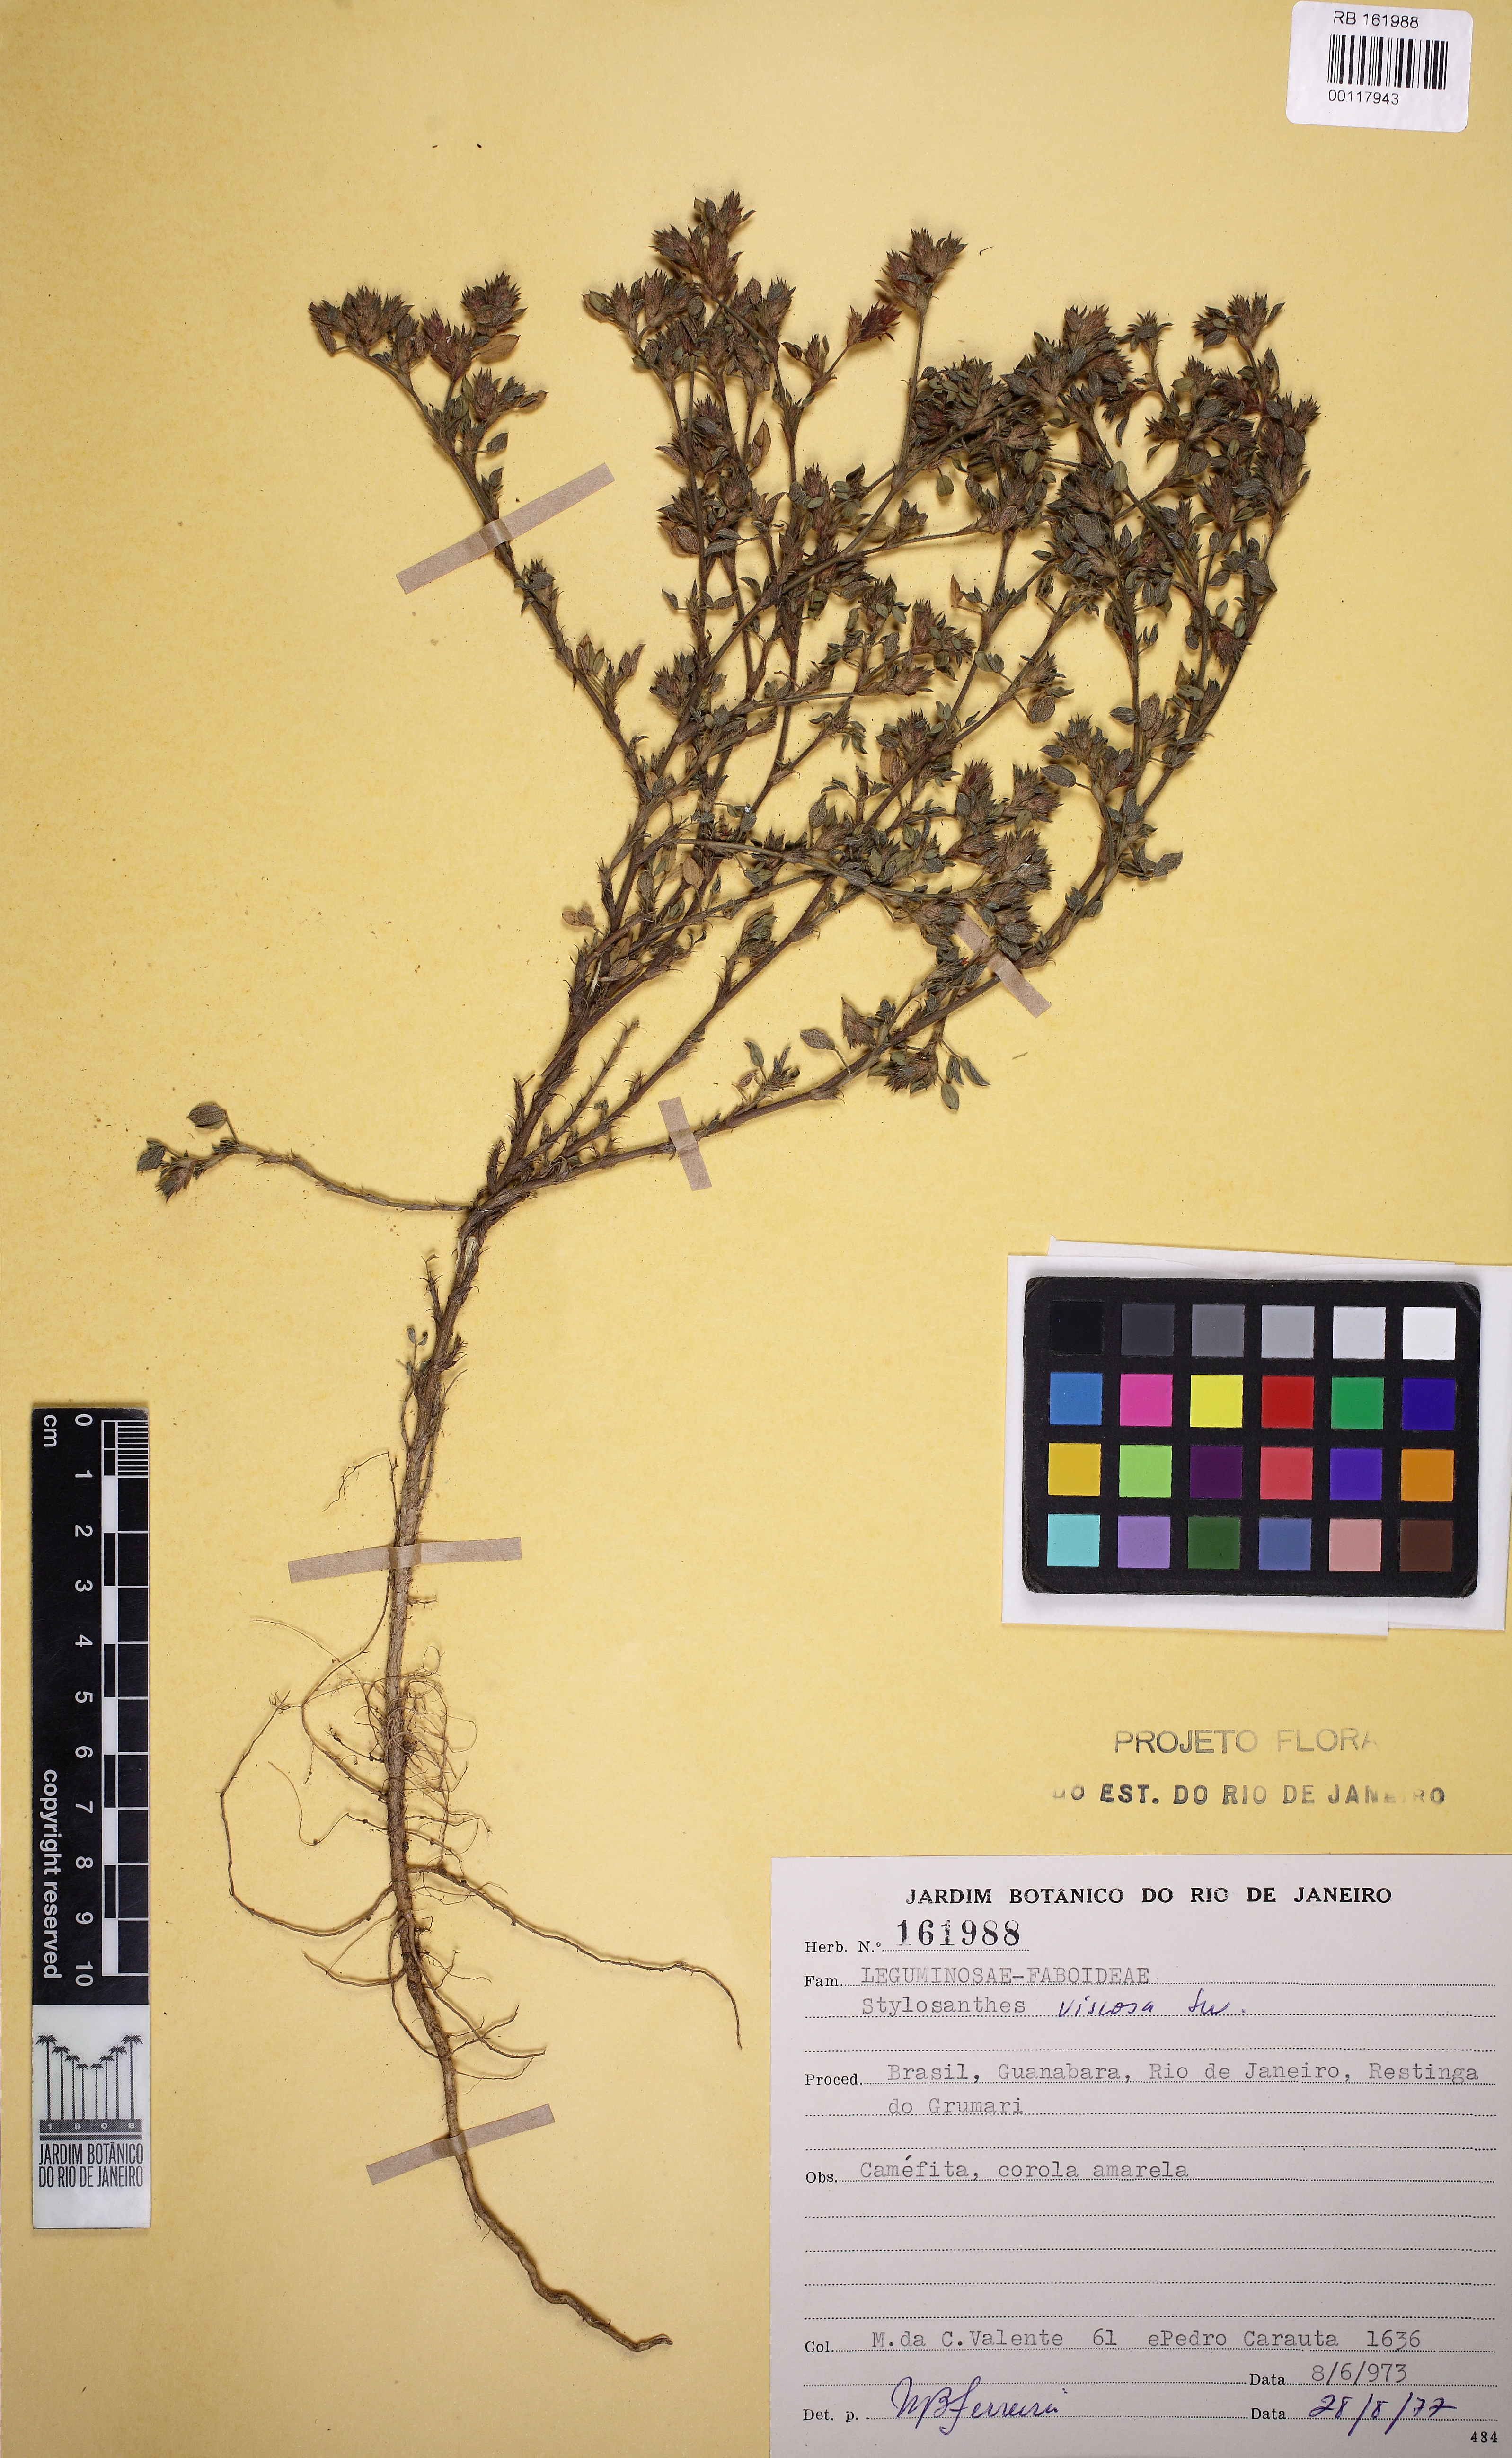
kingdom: Plantae
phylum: Tracheophyta
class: Magnoliopsida
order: Fabales
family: Fabaceae
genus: Stylosanthes
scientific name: Stylosanthes viscosa
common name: Viscid pencil-flower
